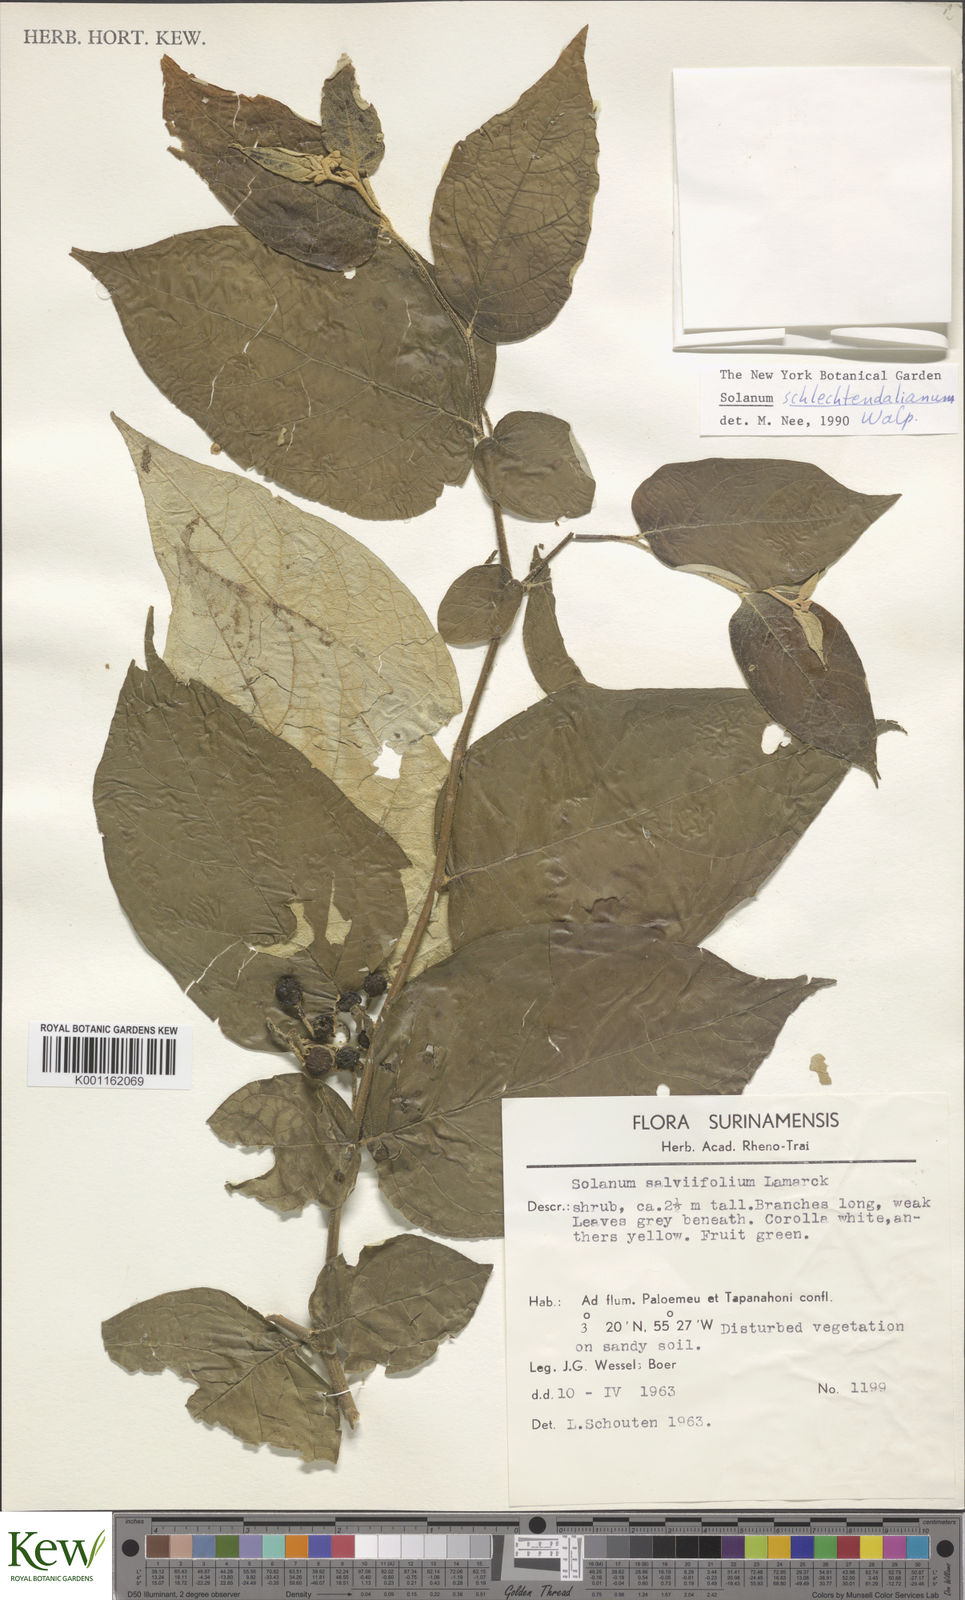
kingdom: Plantae
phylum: Tracheophyta
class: Magnoliopsida
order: Solanales
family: Solanaceae
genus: Solanum
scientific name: Solanum schlechtendalianum
